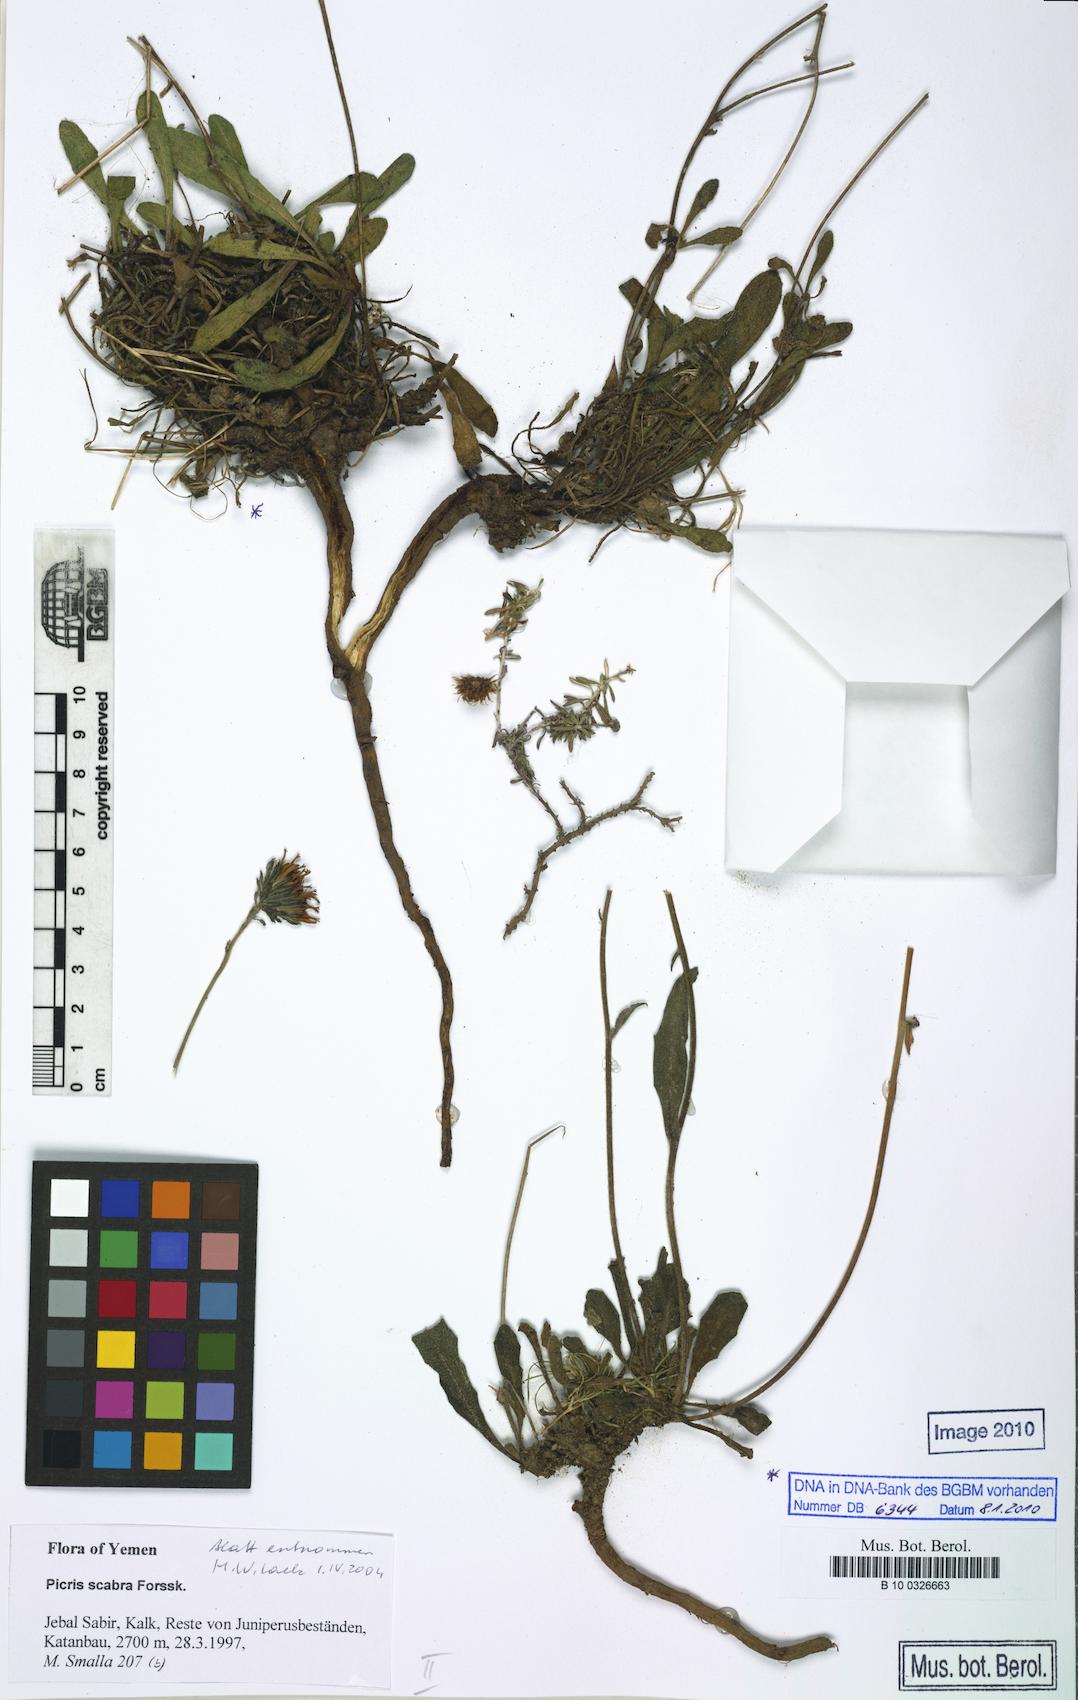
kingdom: Plantae
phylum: Tracheophyta
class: Magnoliopsida
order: Asterales
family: Asteraceae
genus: Picris
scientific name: Picris scabra
